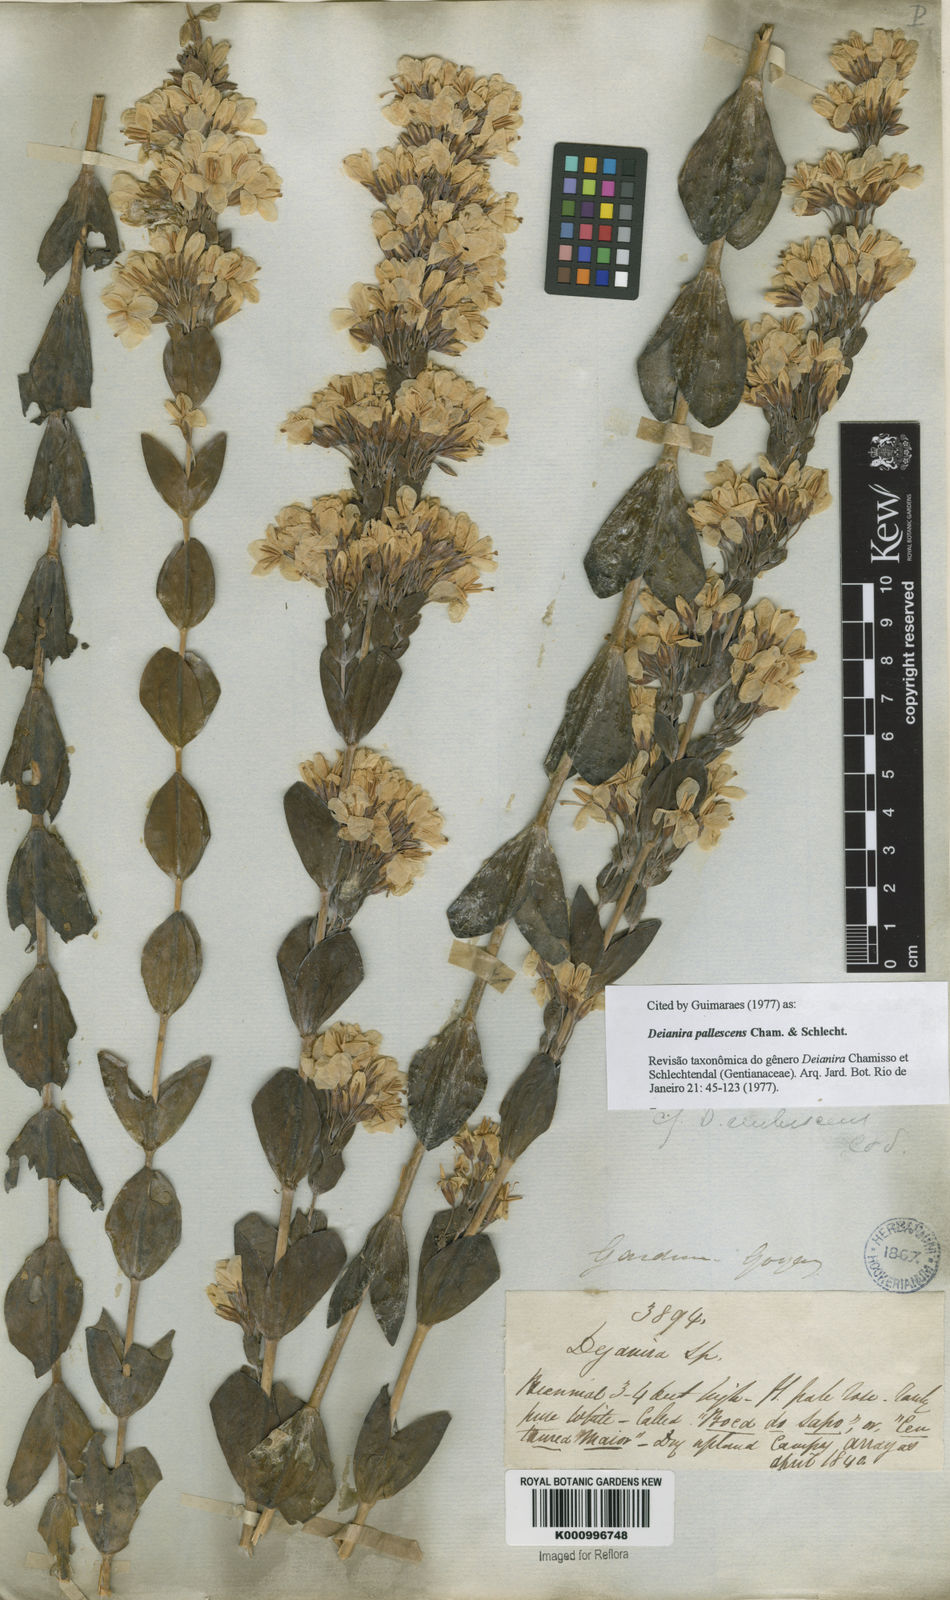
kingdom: Plantae
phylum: Tracheophyta
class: Magnoliopsida
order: Gentianales
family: Gentianaceae
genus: Deianira
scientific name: Deianira pallescens
